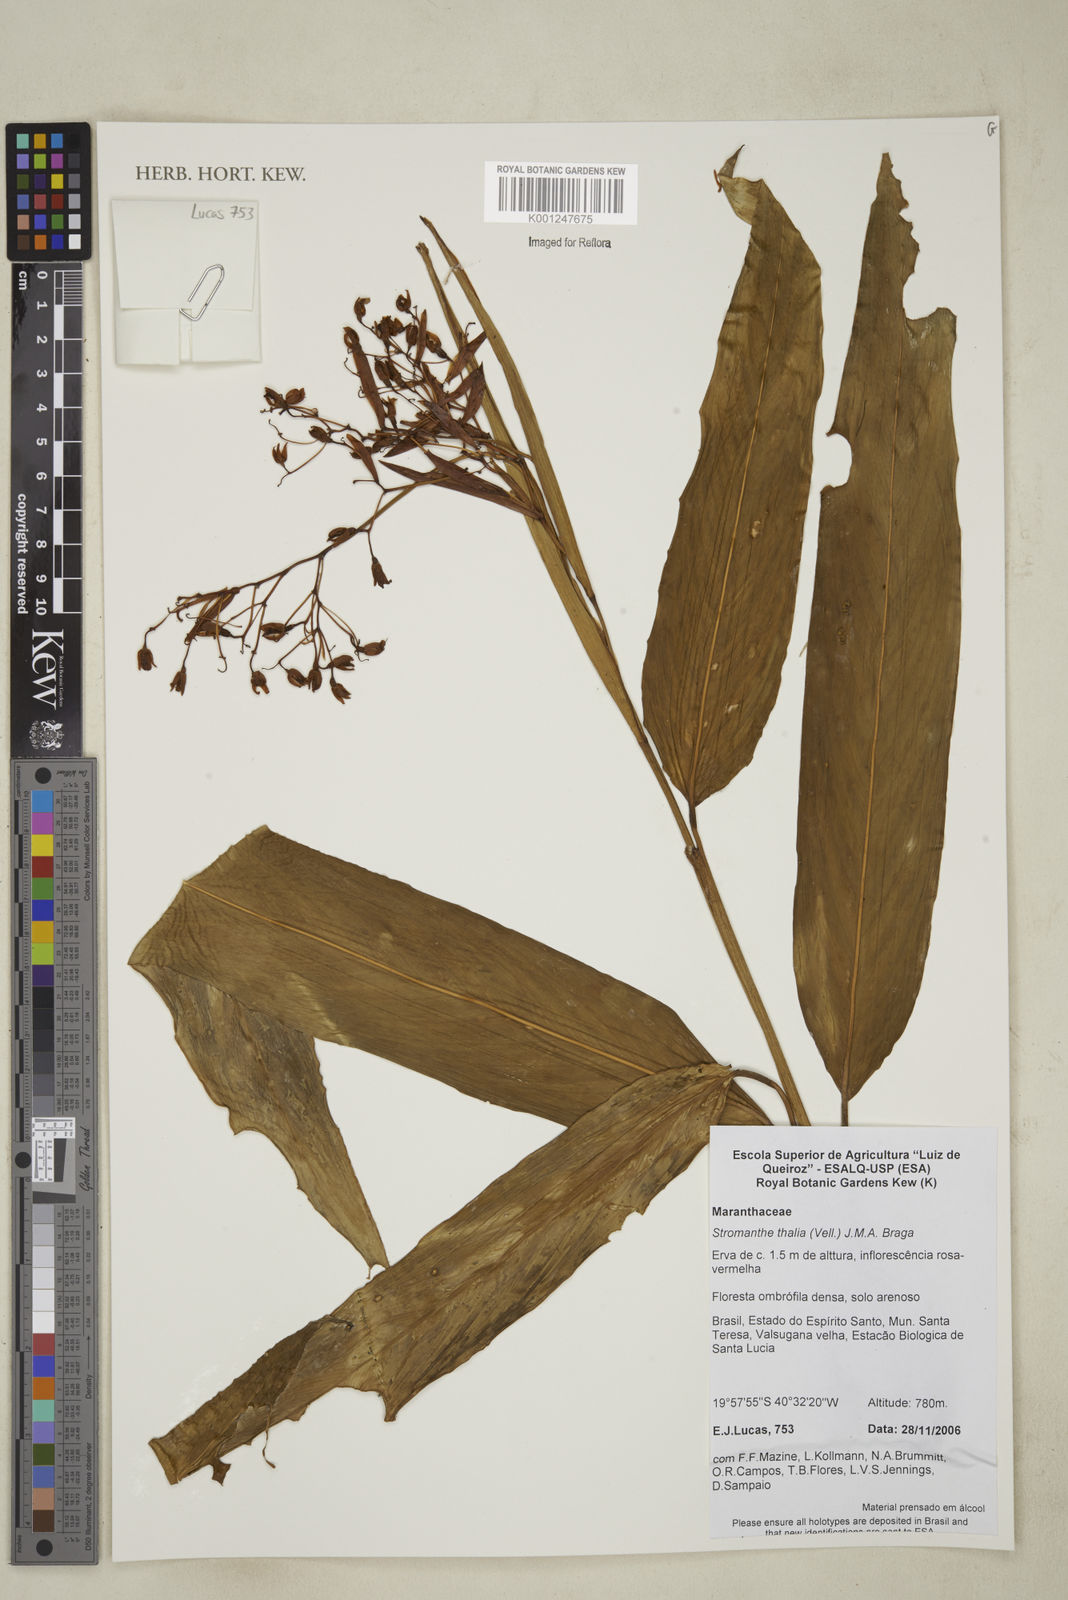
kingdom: Plantae
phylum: Tracheophyta
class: Liliopsida
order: Zingiberales
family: Marantaceae
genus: Stromanthe
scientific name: Stromanthe thalia
